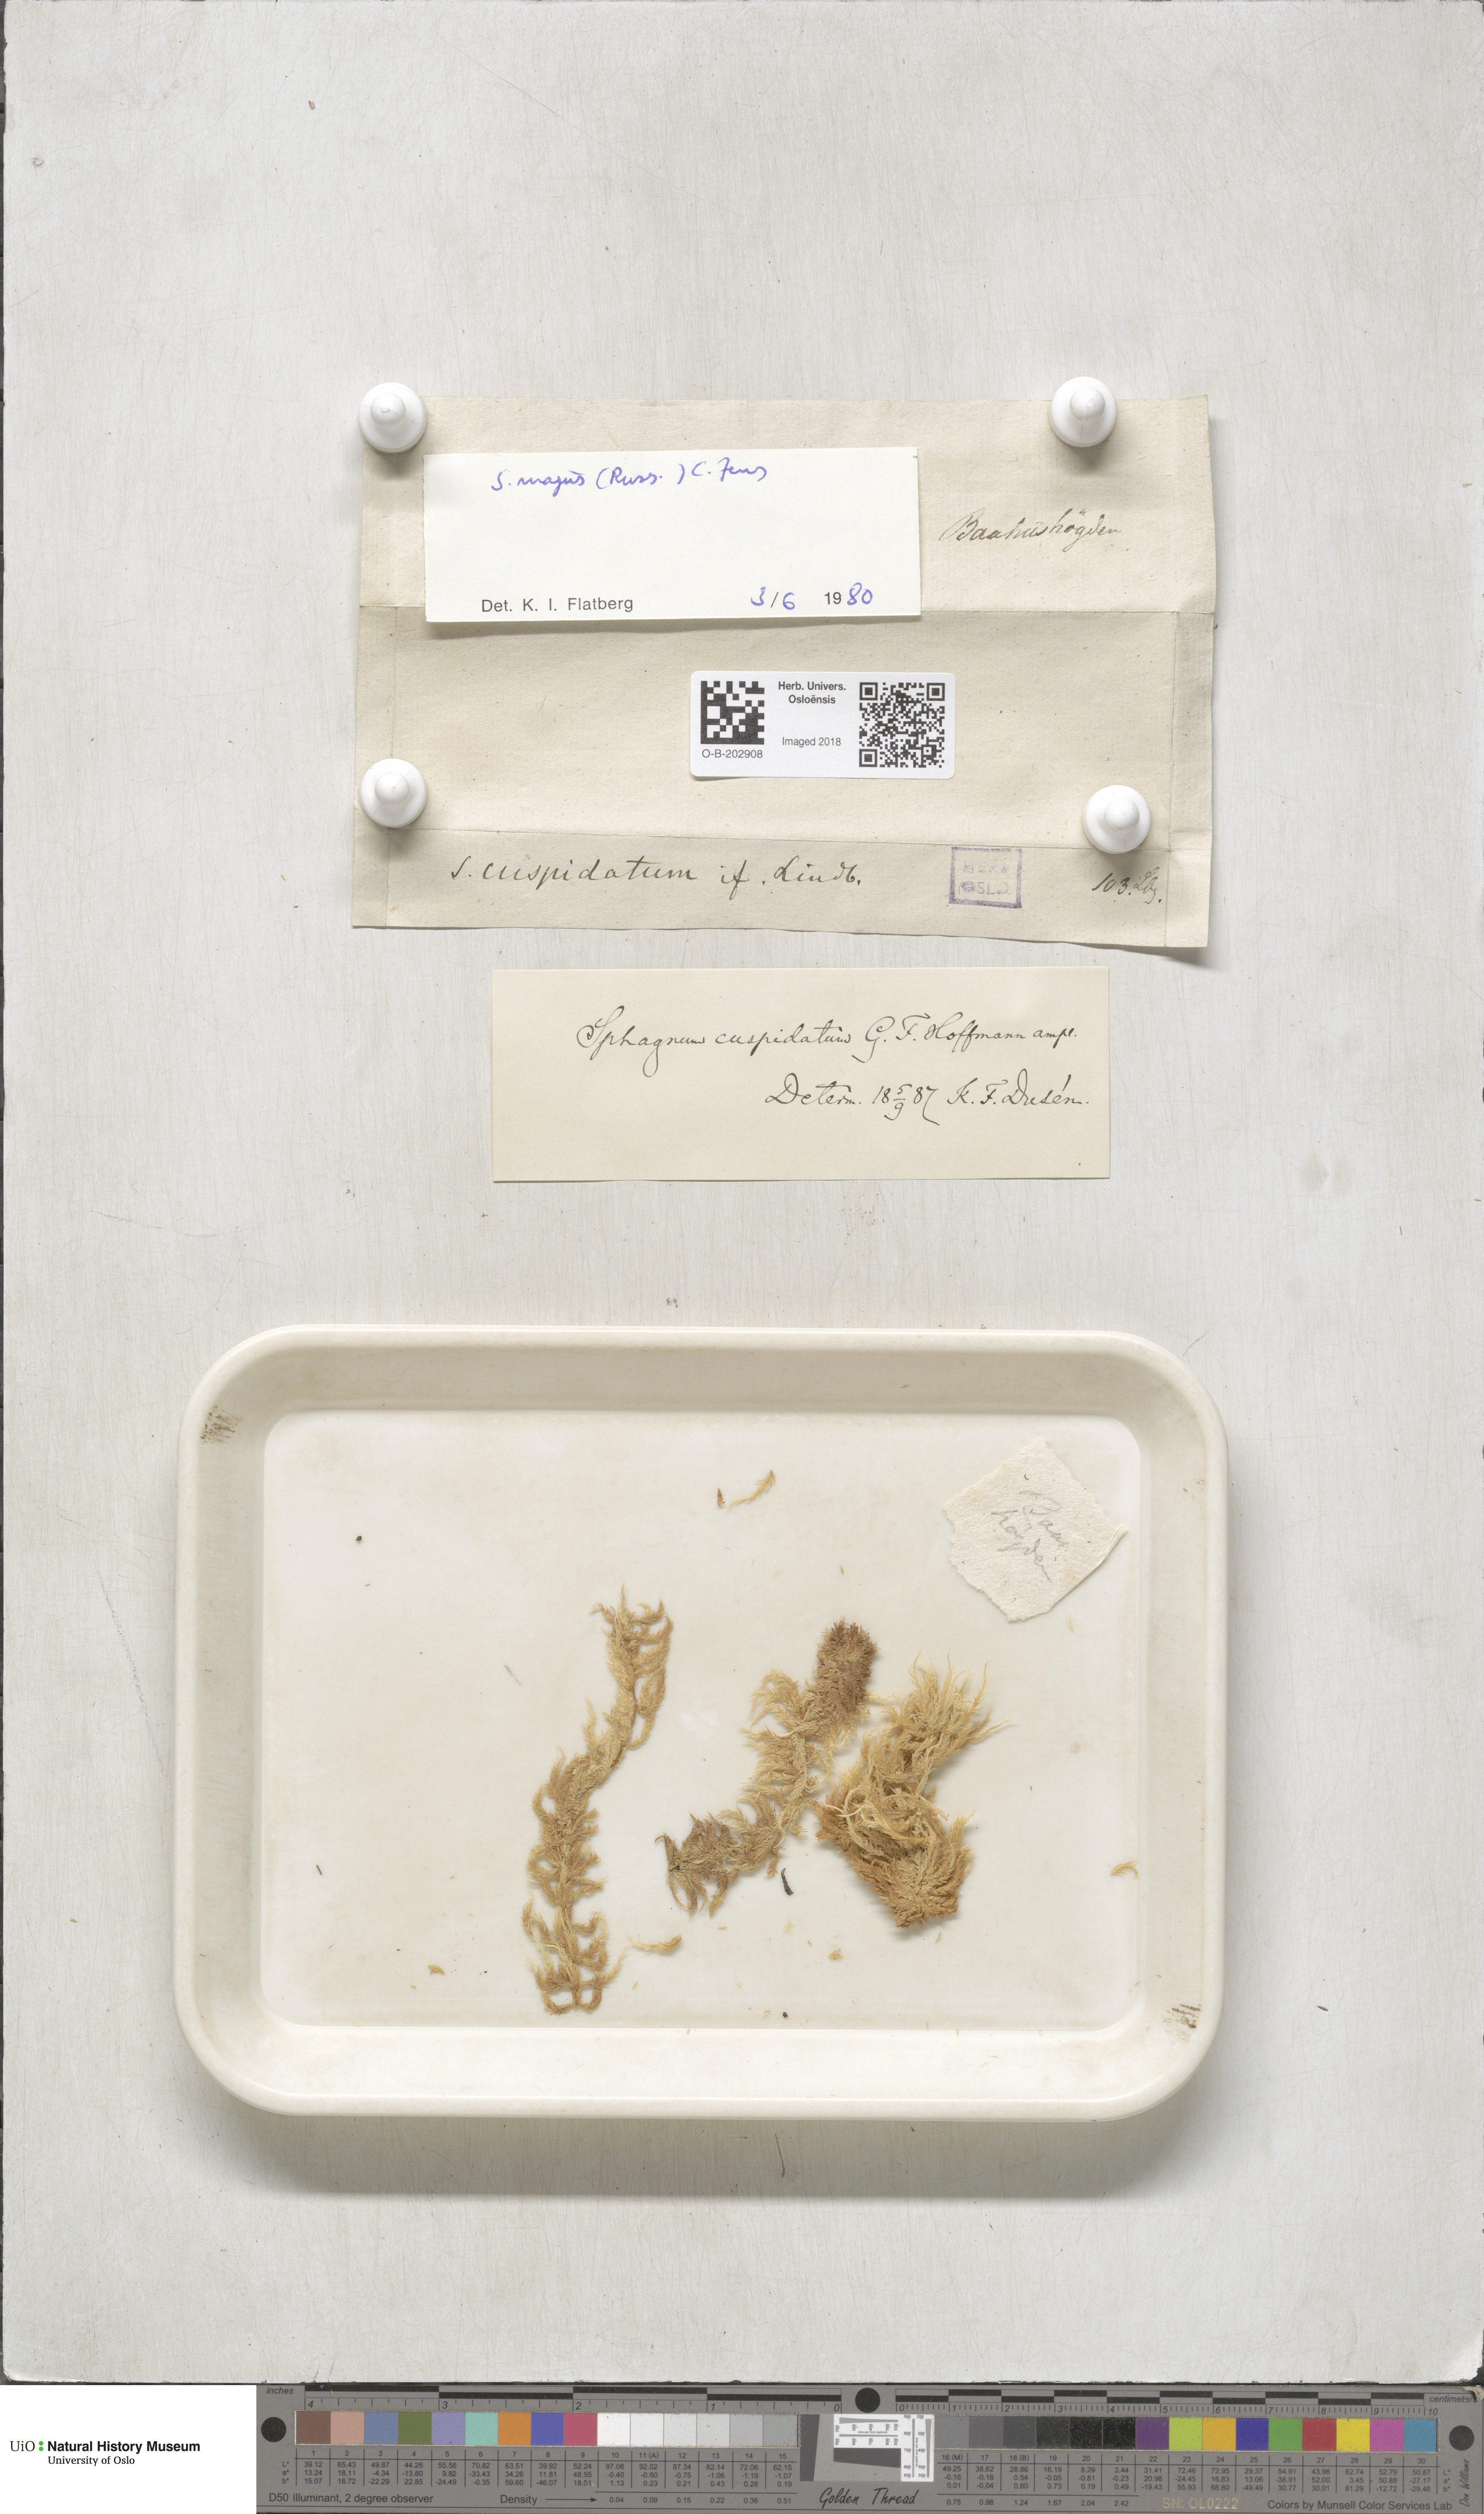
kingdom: Plantae
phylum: Bryophyta
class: Sphagnopsida
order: Sphagnales
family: Sphagnaceae
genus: Sphagnum
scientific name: Sphagnum majus
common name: Olive bog-moss
